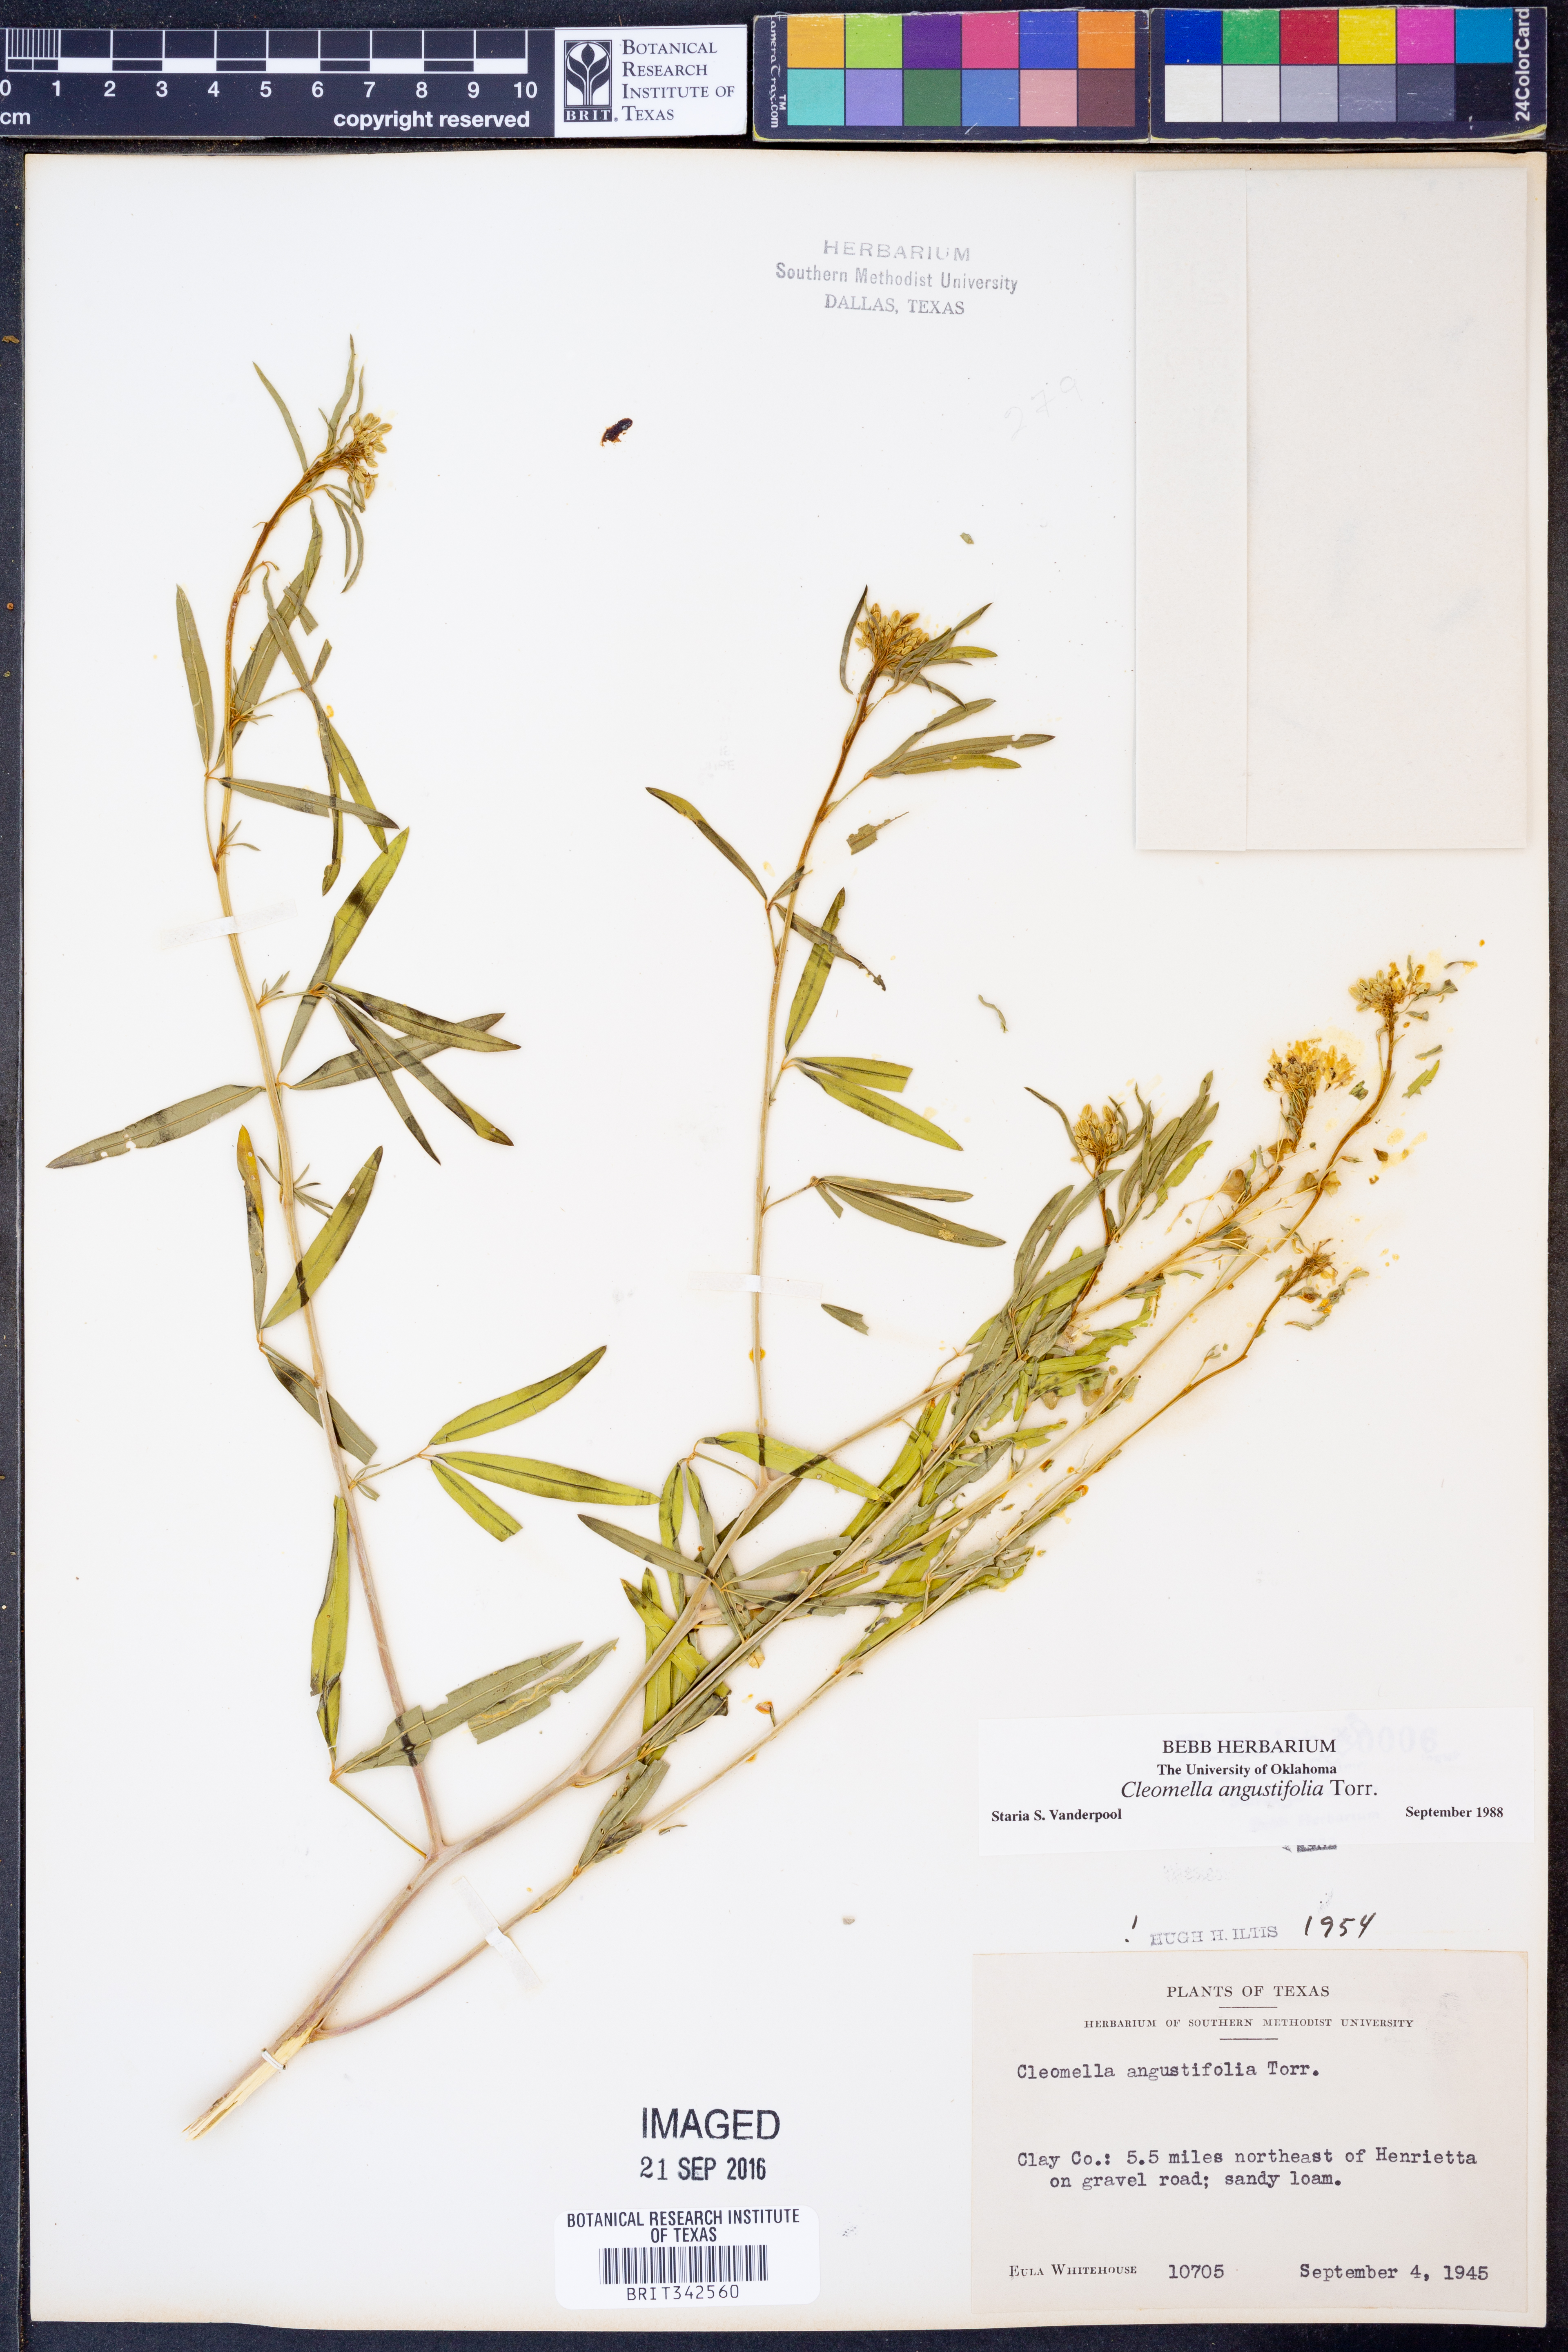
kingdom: Plantae
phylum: Tracheophyta
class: Magnoliopsida
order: Brassicales
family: Cleomaceae
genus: Cleomella
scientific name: Cleomella angustifolia
